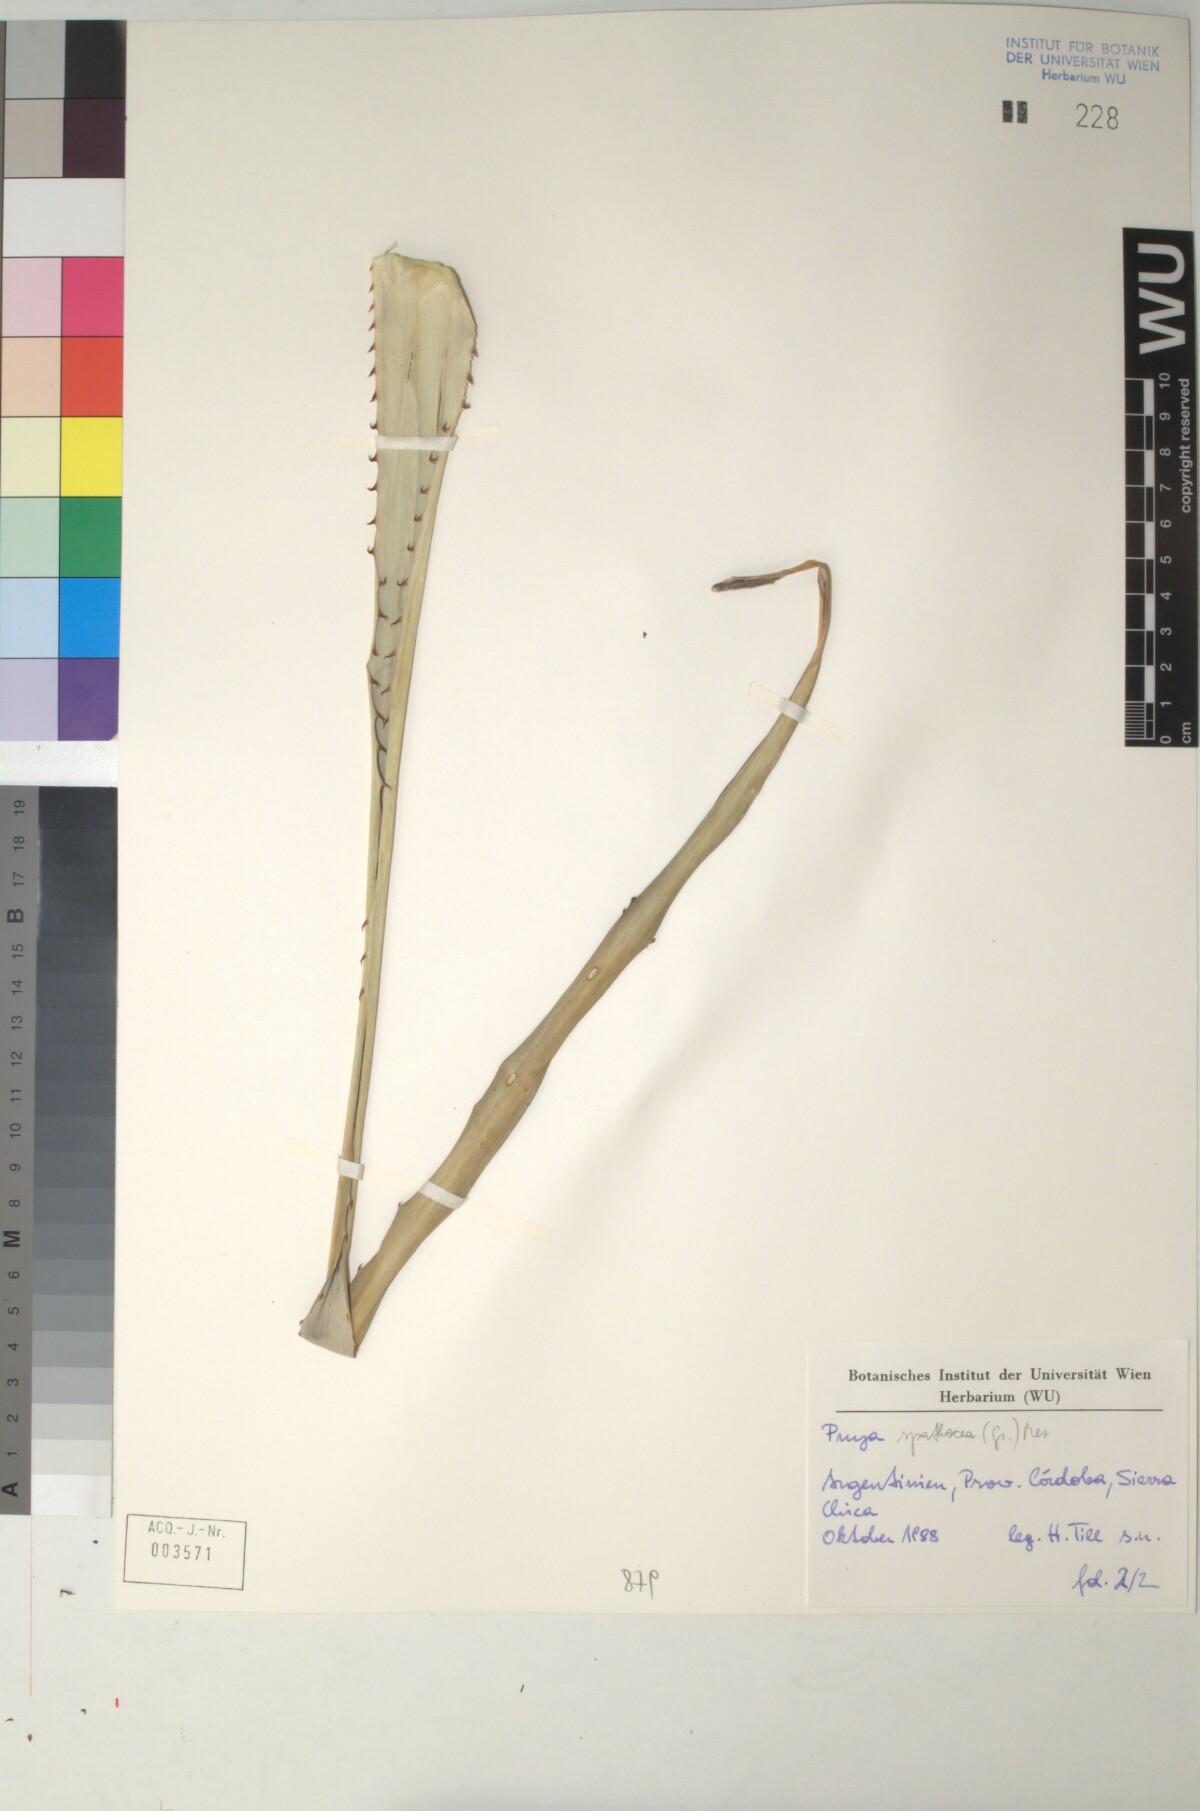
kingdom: Plantae
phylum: Tracheophyta
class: Liliopsida
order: Poales
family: Bromeliaceae
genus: Puya
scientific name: Puya spathacea
